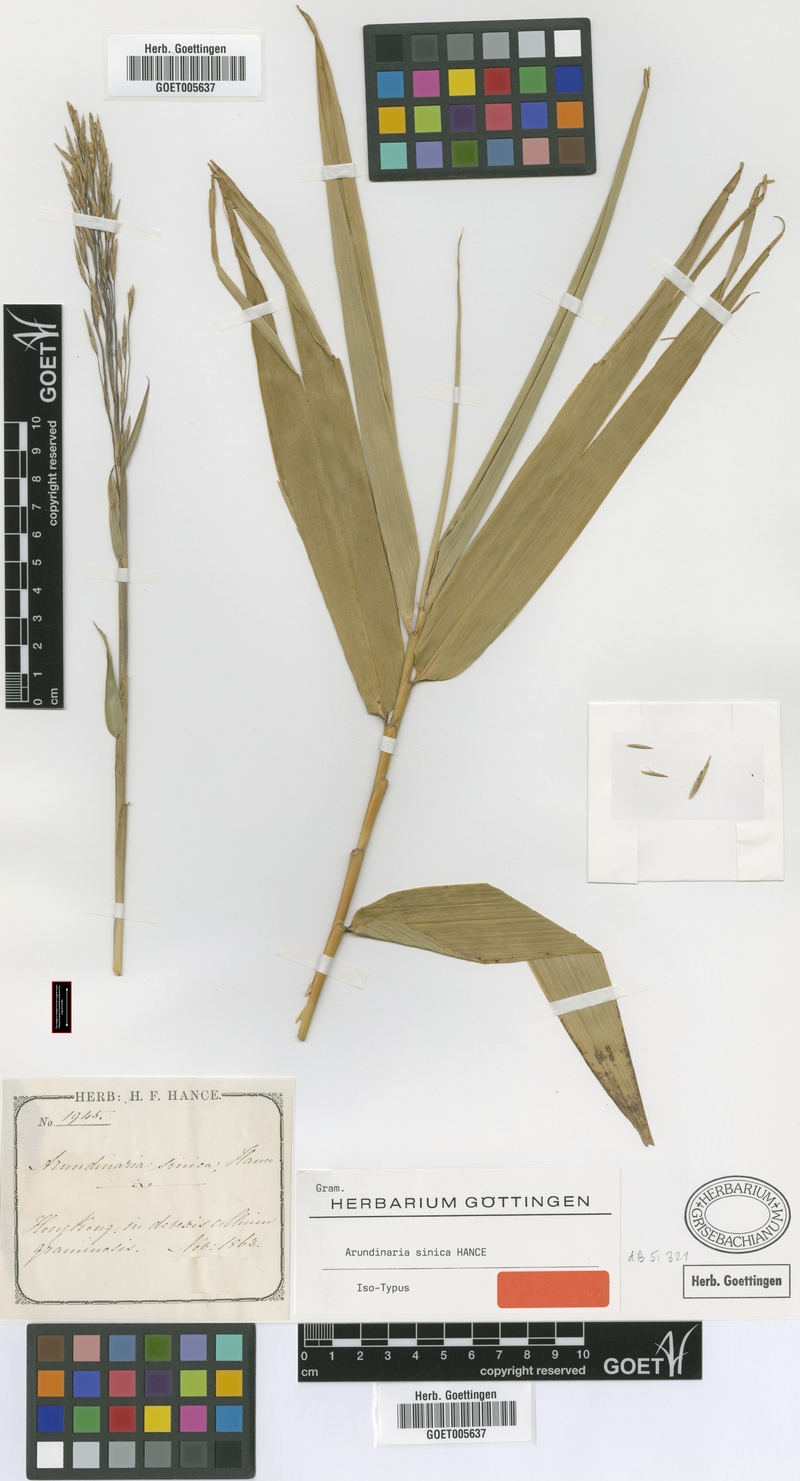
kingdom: Plantae
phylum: Tracheophyta
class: Liliopsida
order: Poales
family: Poaceae
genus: Indocalamus
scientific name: Indocalamus sinicus
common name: Chinese cane
